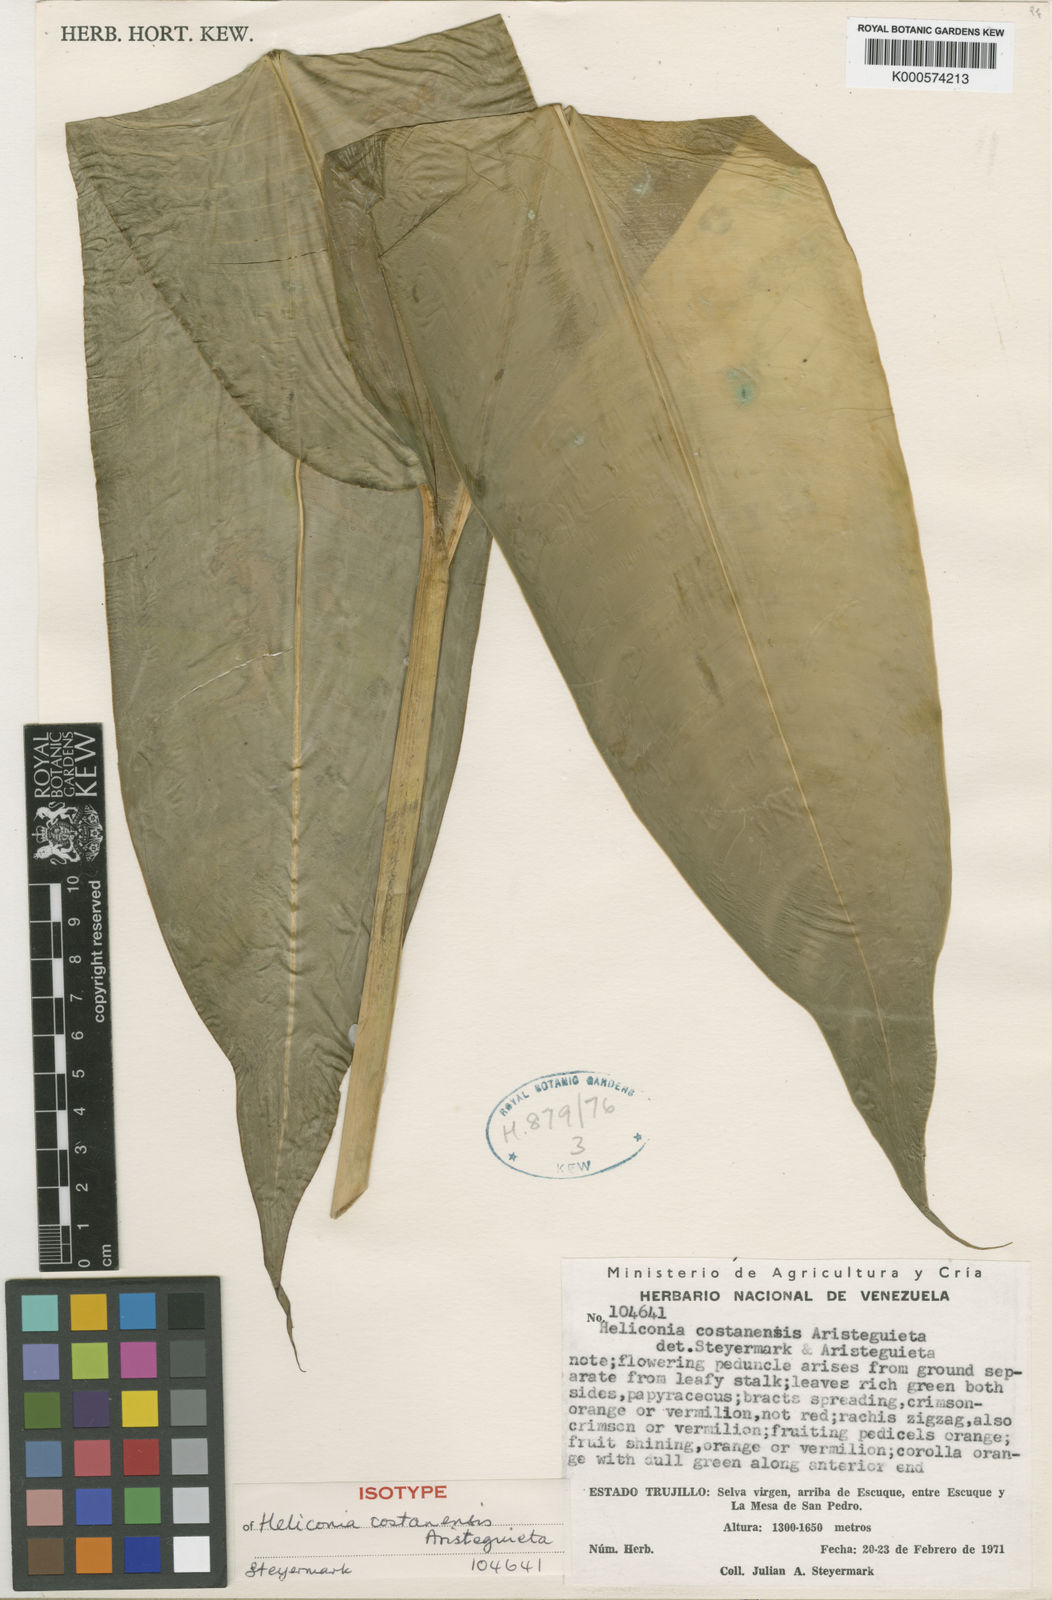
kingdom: Plantae
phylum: Tracheophyta
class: Liliopsida
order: Zingiberales
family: Heliconiaceae
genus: Heliconia
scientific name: Heliconia hirsuta
